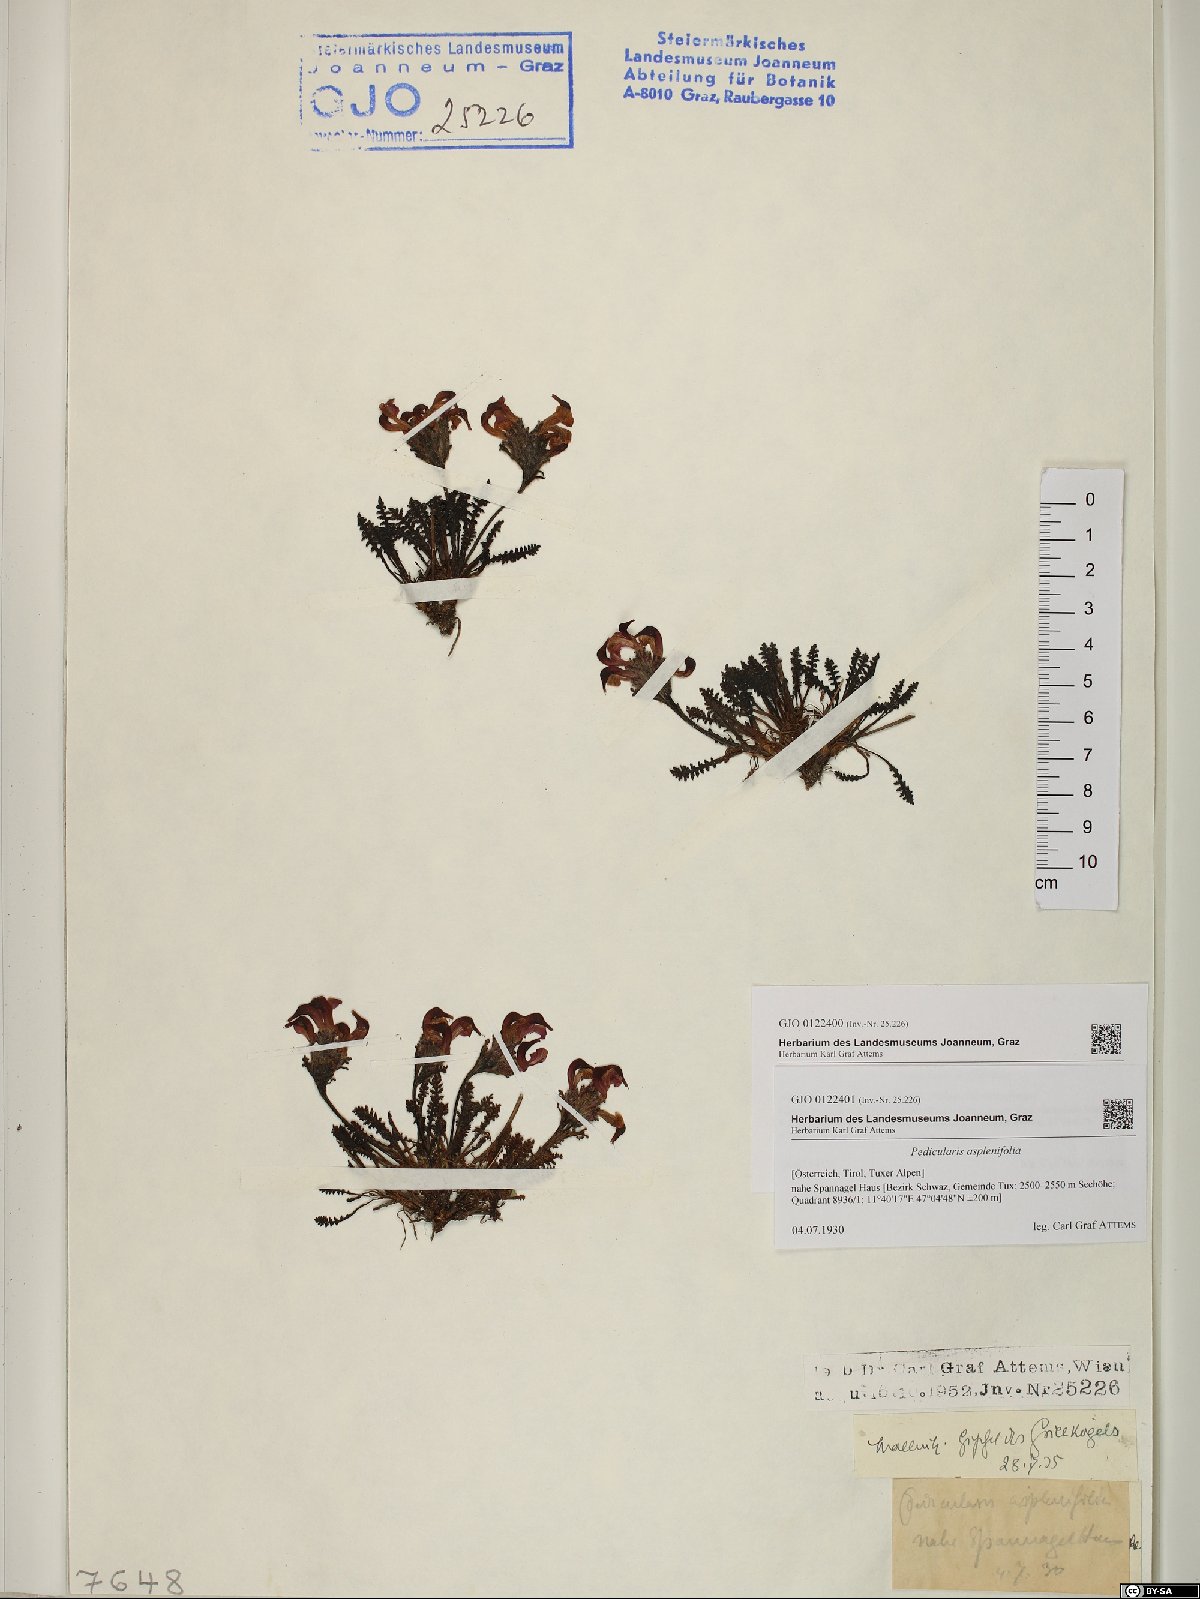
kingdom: Plantae
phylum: Tracheophyta
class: Magnoliopsida
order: Lamiales
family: Orobanchaceae
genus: Pedicularis
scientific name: Pedicularis asplenifolia
